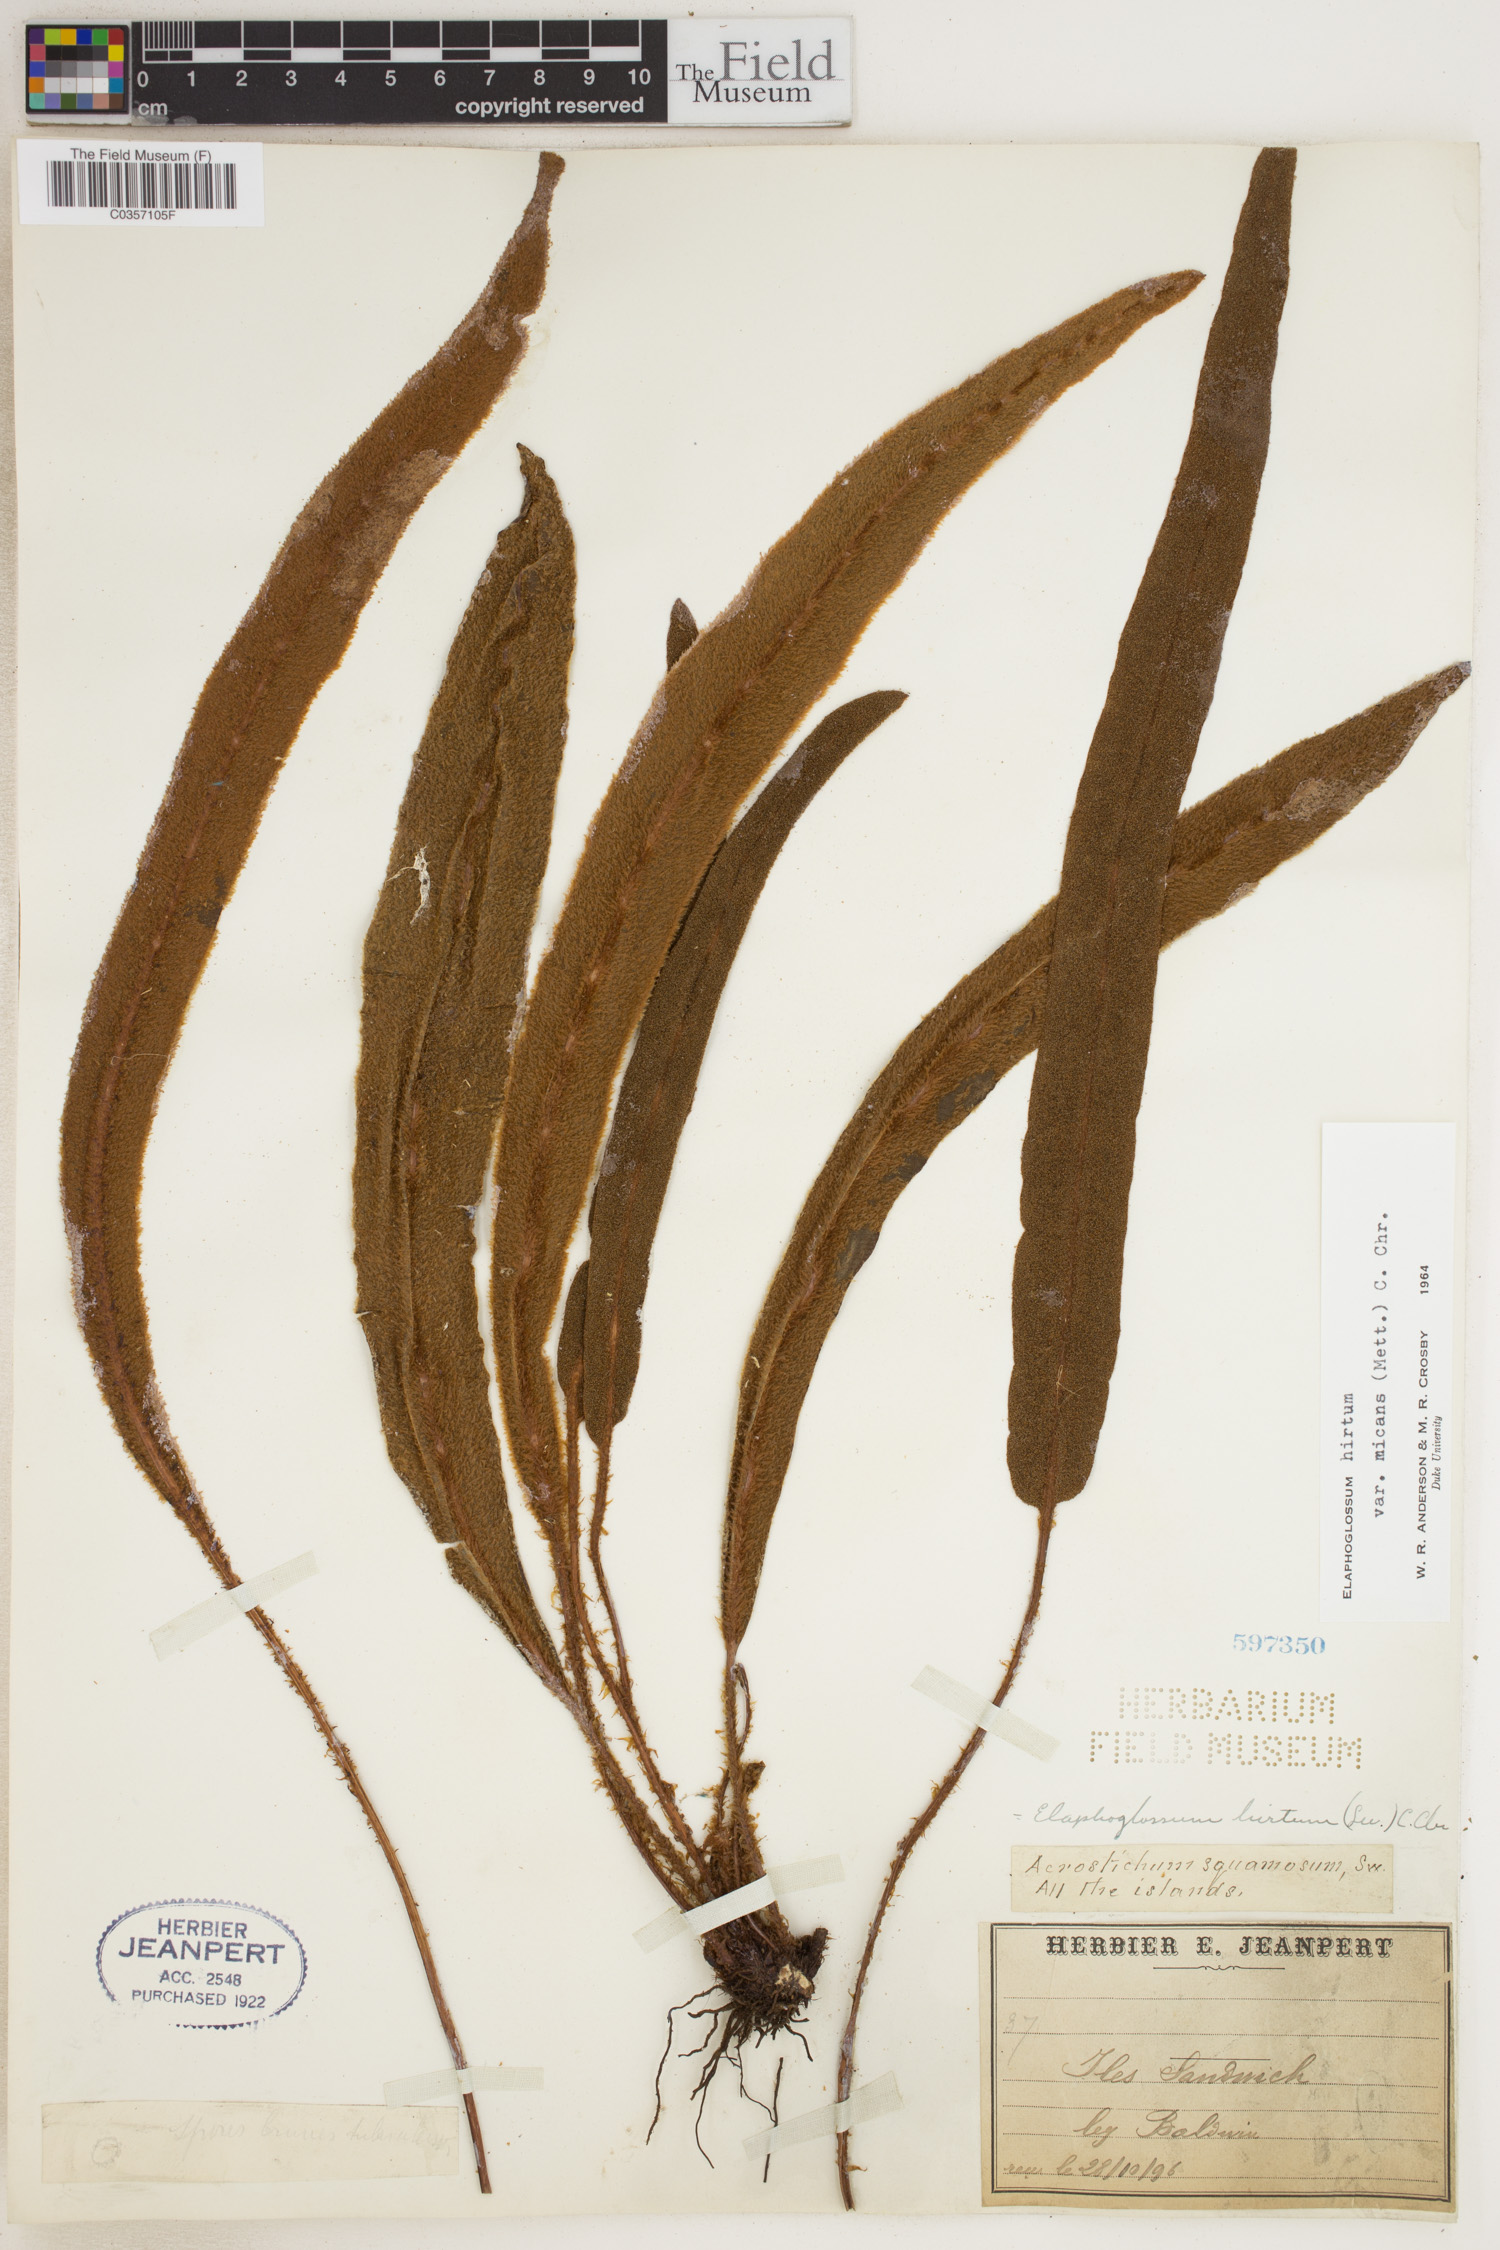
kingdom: Plantae
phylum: Tracheophyta
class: Polypodiopsida
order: Polypodiales
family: Dryopteridaceae
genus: Elaphoglossum
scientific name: Elaphoglossum hirtum
